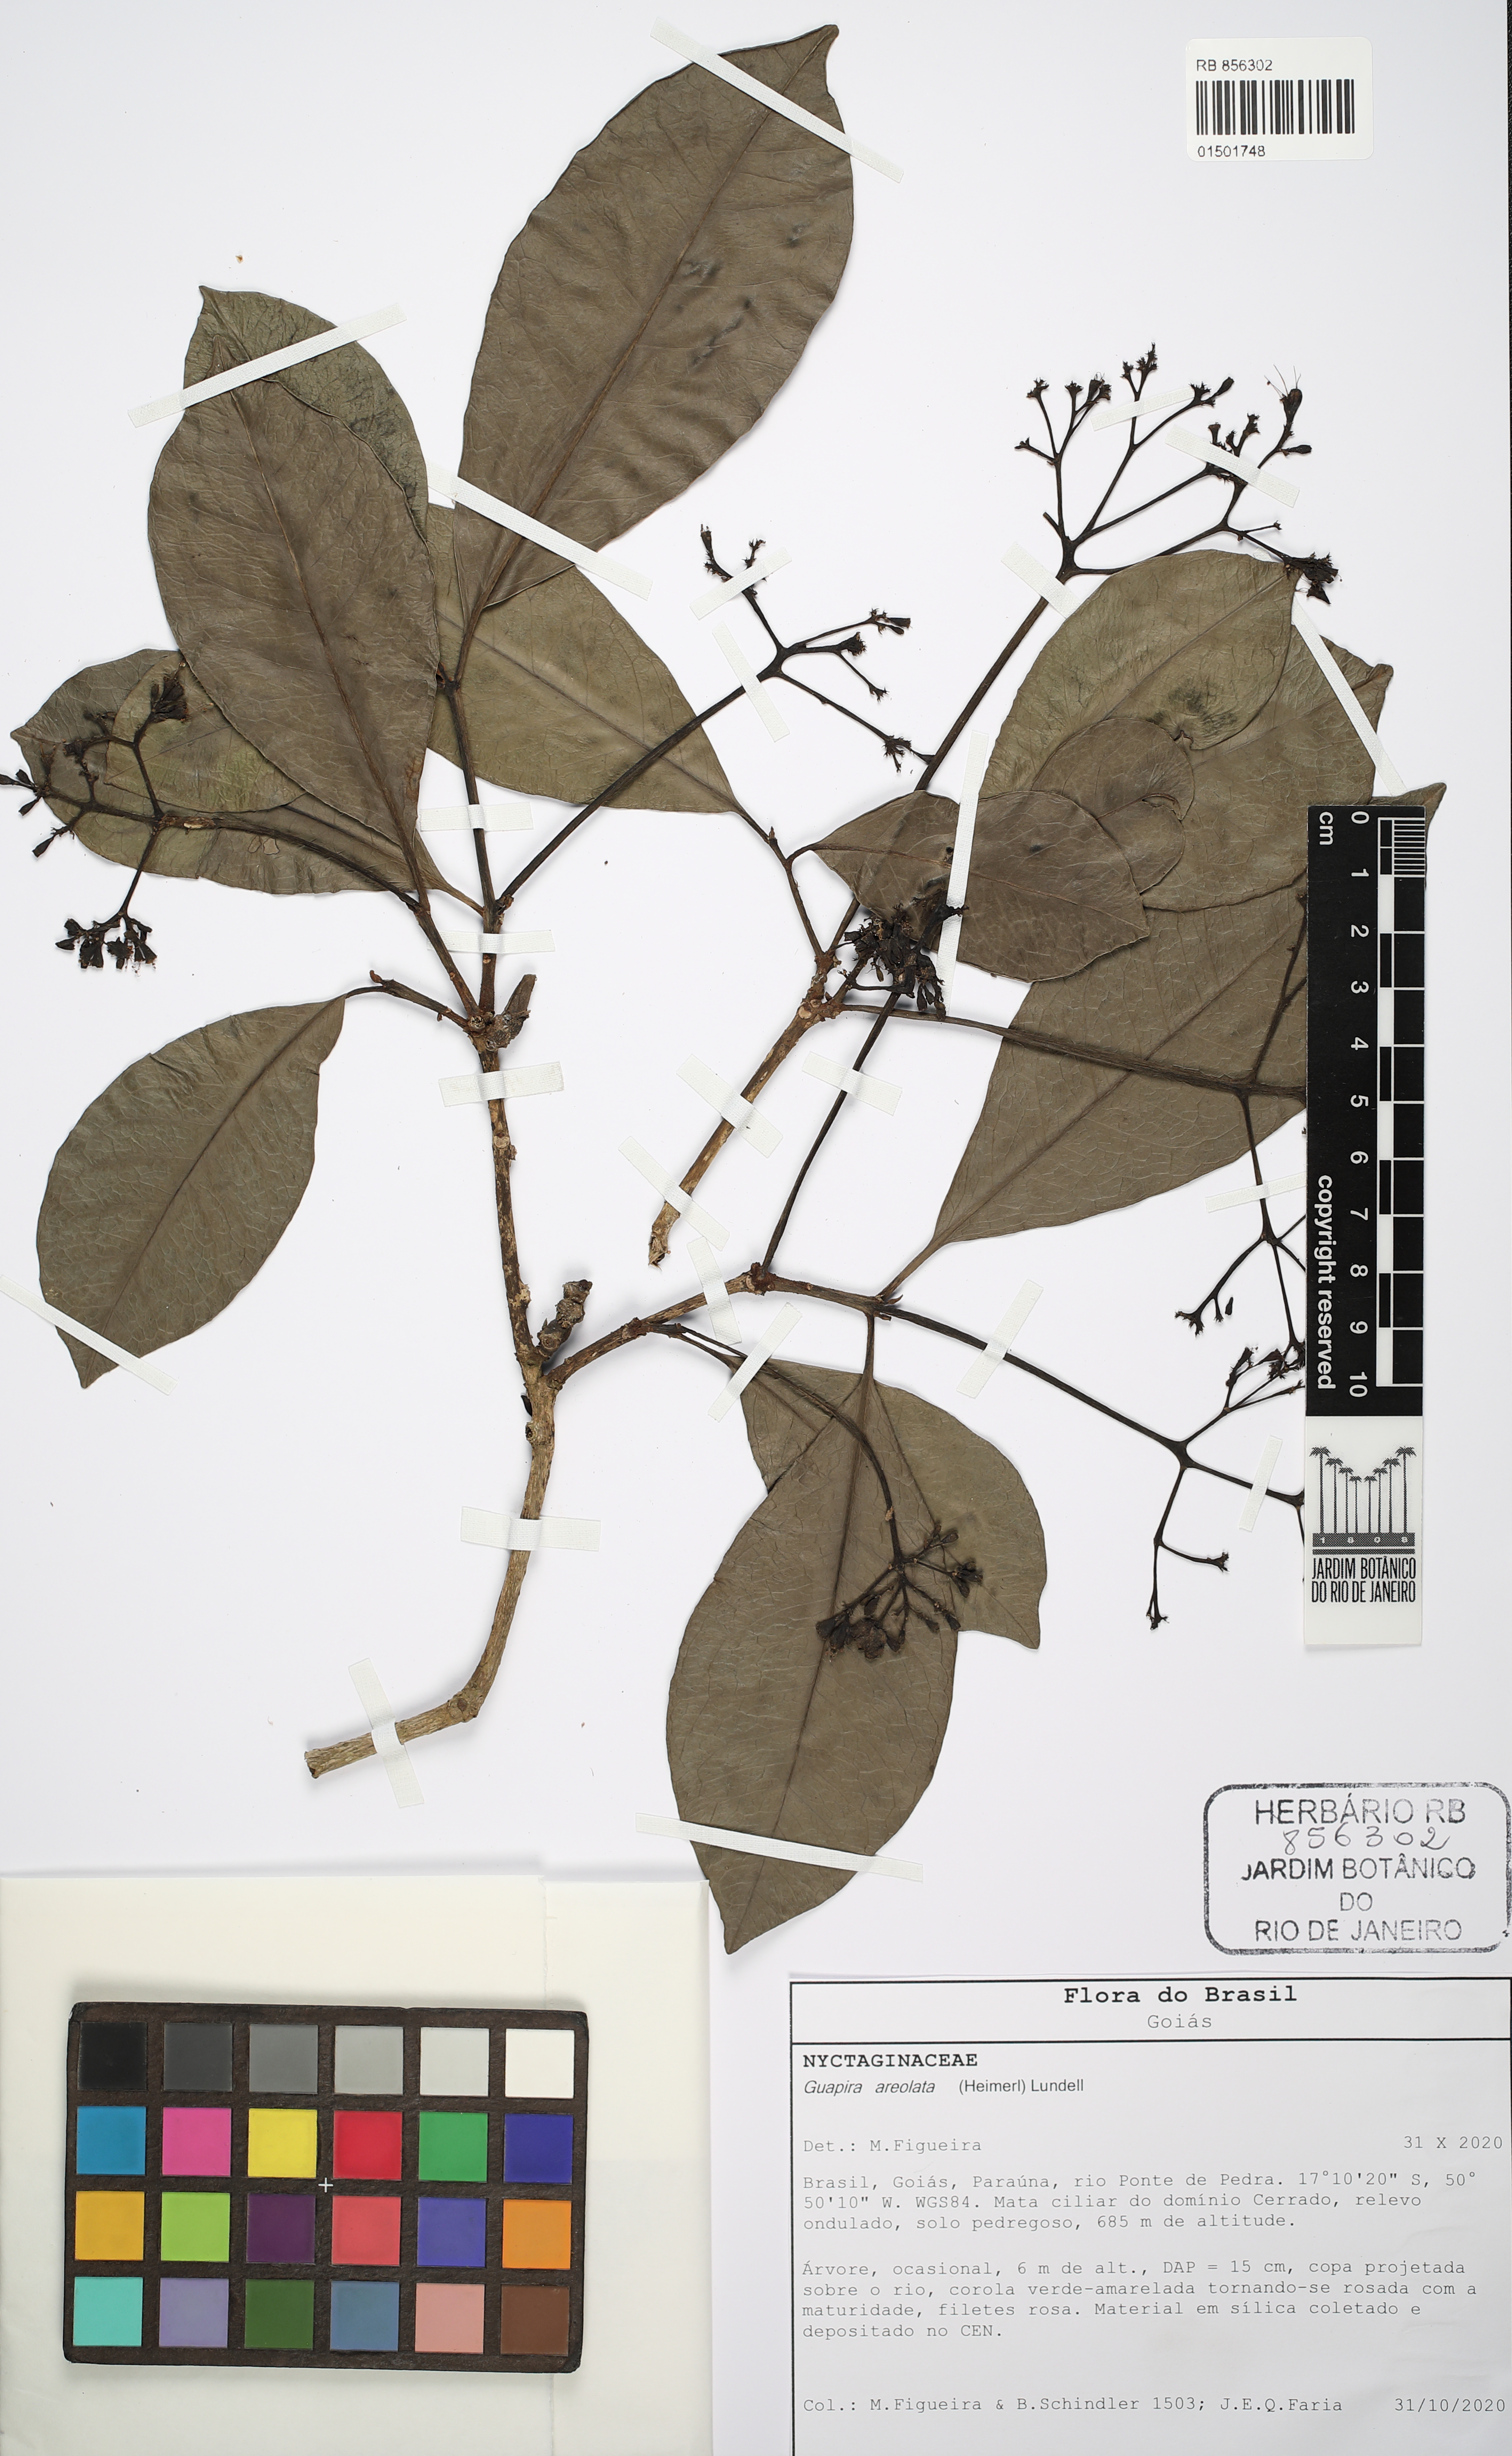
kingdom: Plantae
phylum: Tracheophyta
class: Magnoliopsida
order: Caryophyllales
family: Nyctaginaceae
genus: Guapira
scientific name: Guapira areolata
